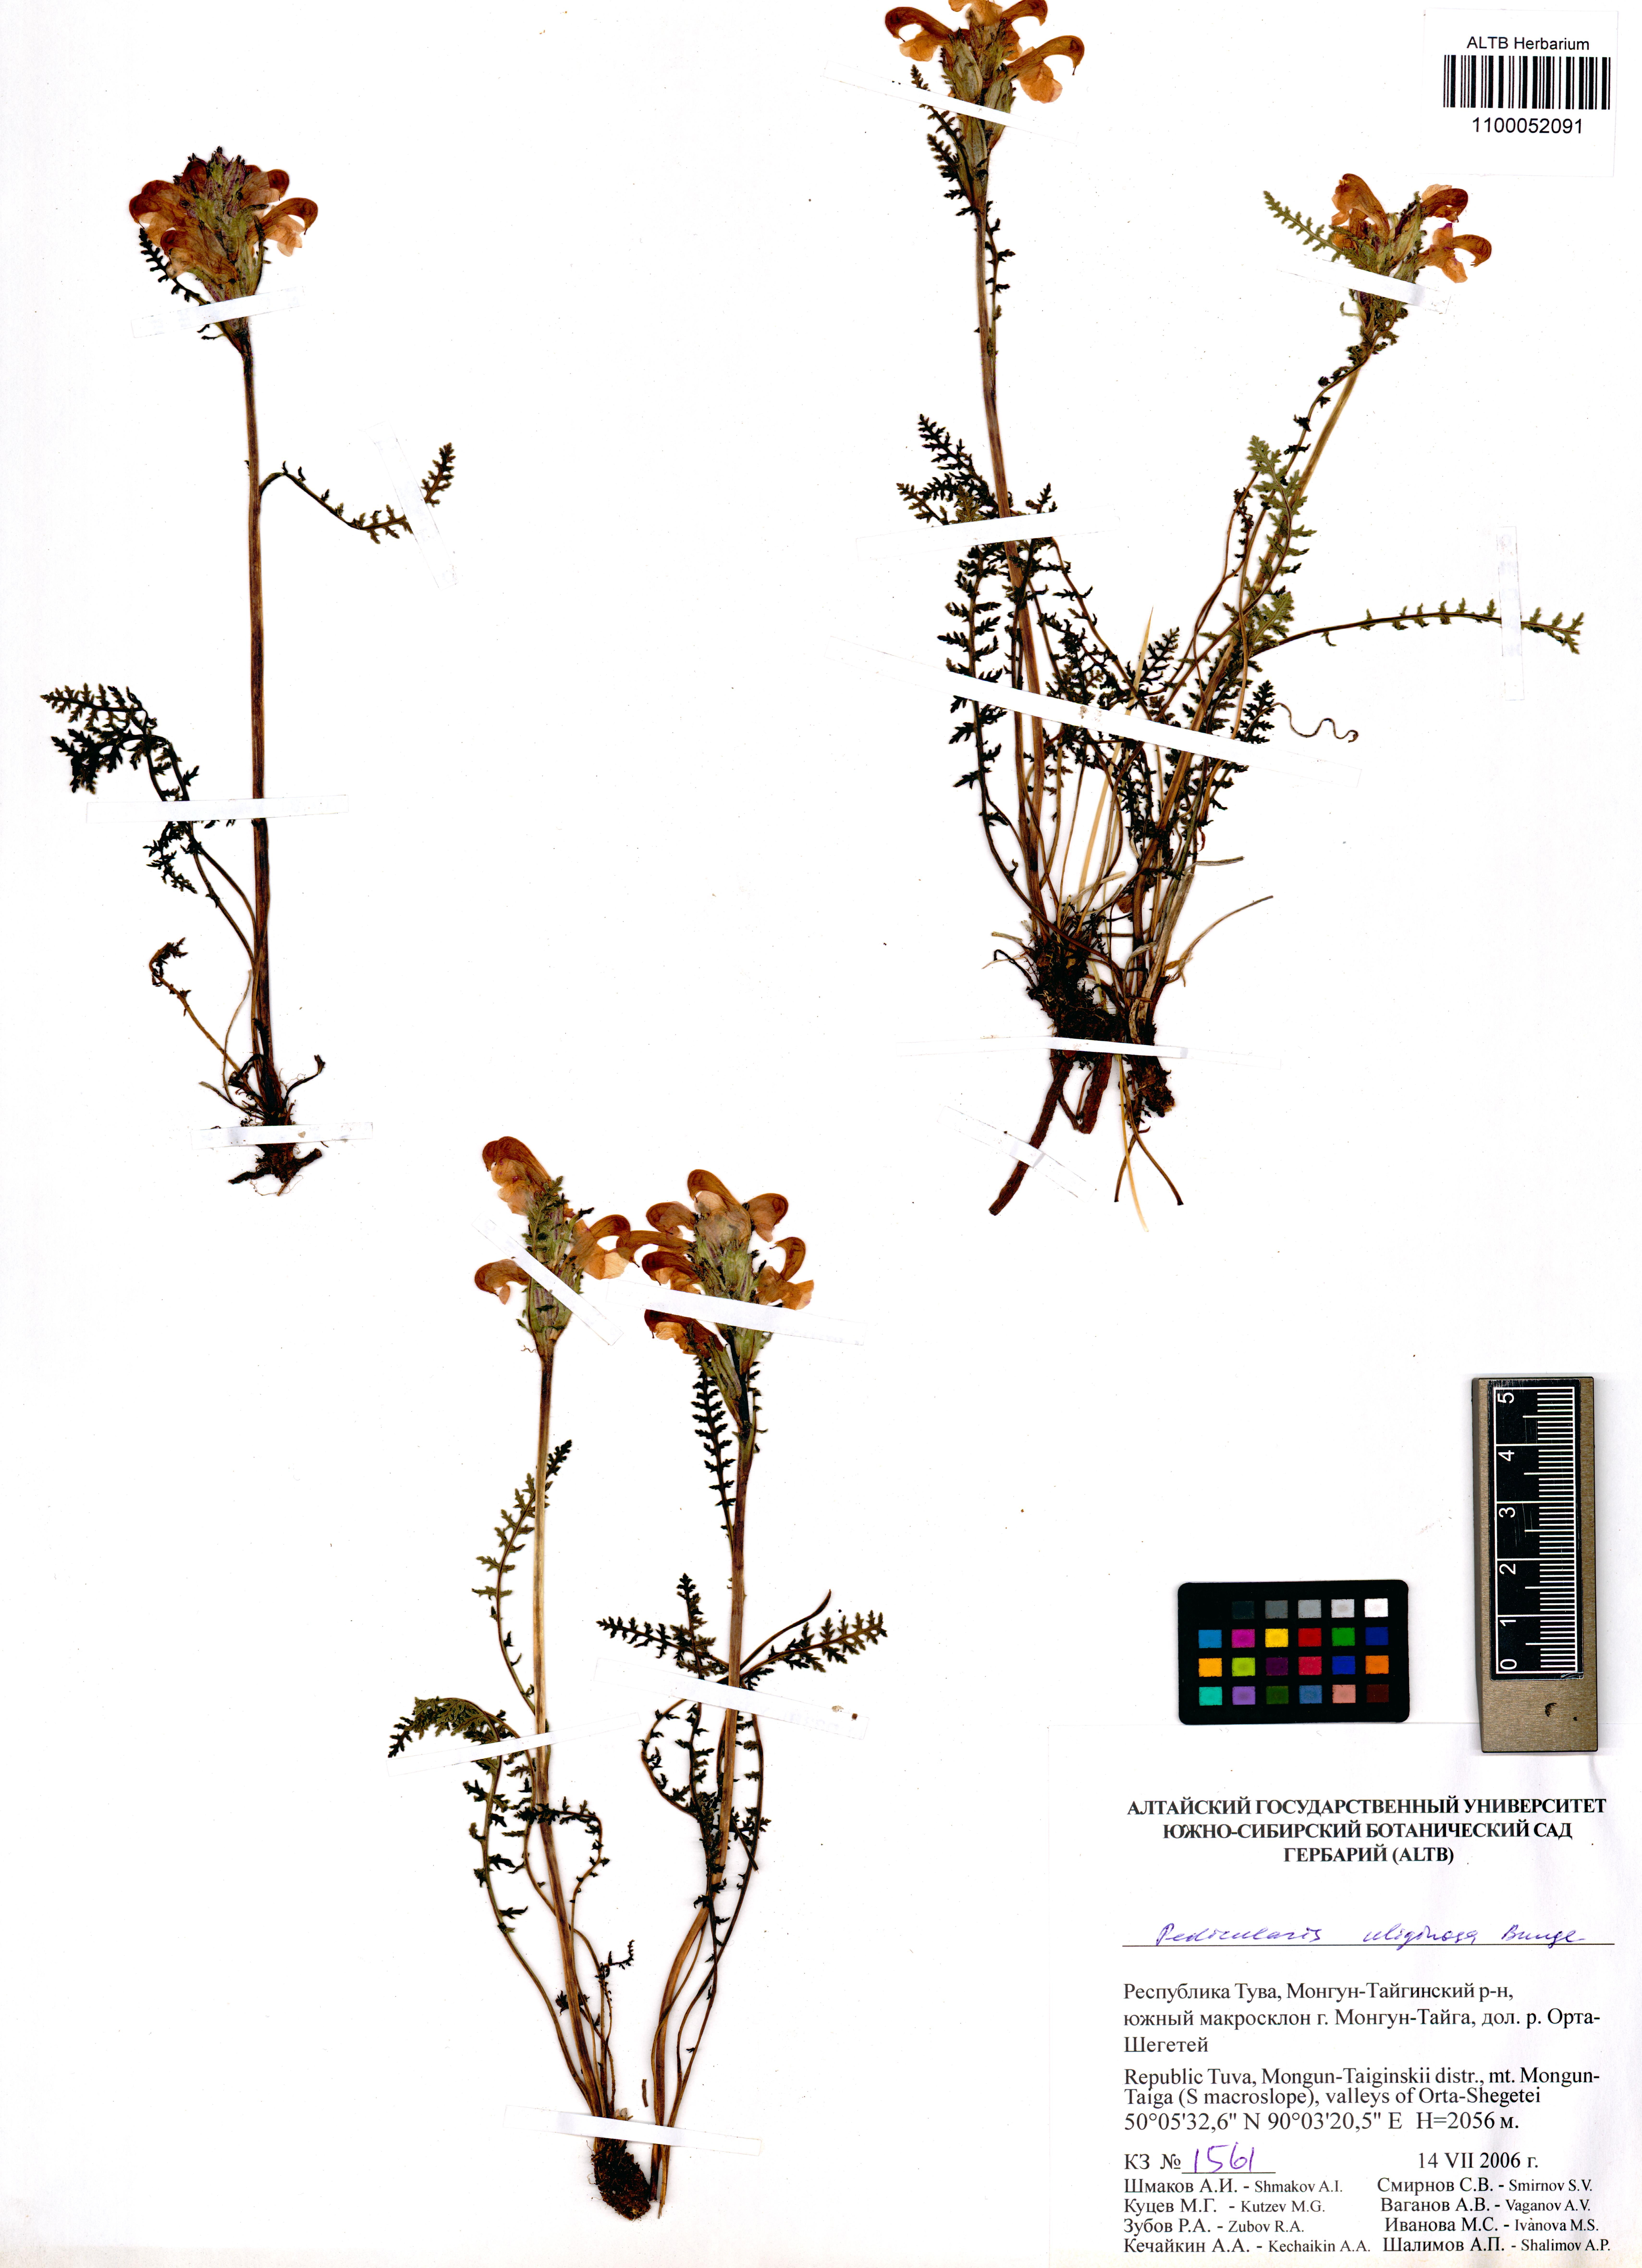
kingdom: Plantae
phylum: Tracheophyta
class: Magnoliopsida
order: Lamiales
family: Orobanchaceae
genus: Pedicularis
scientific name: Pedicularis uliginosa
